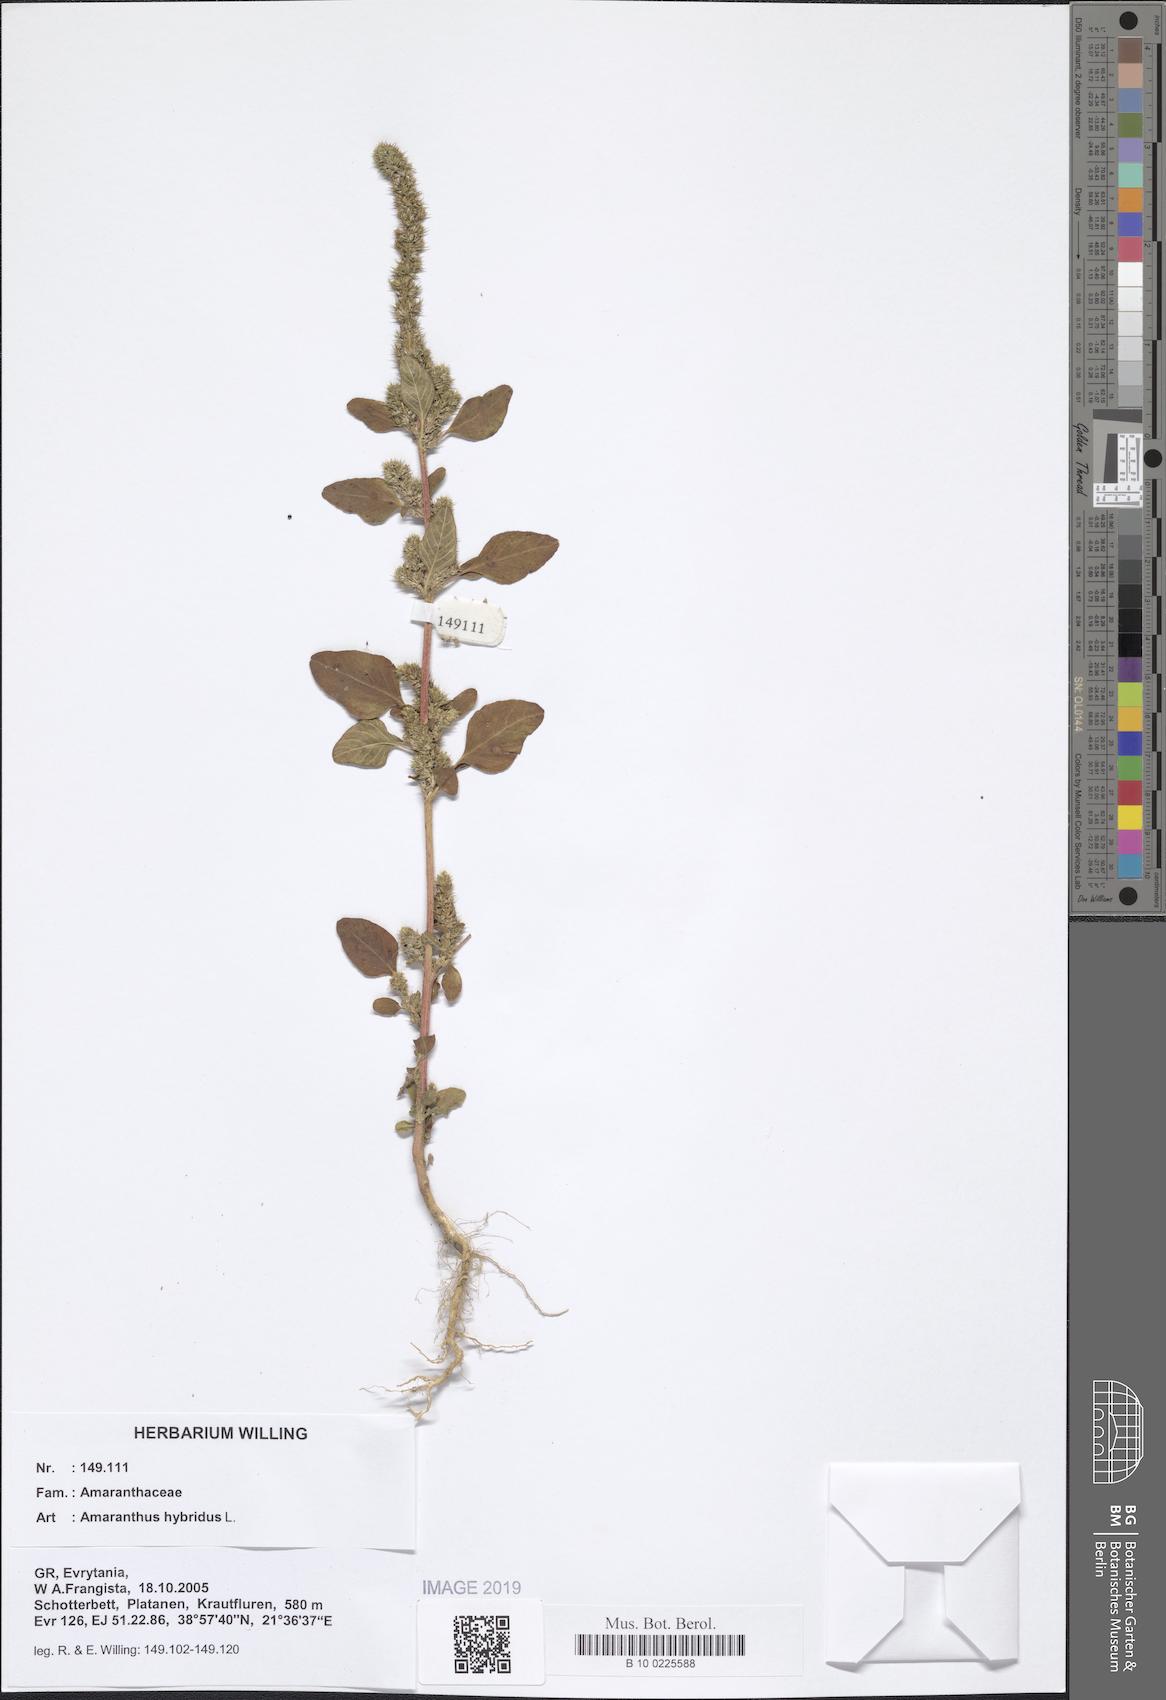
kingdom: Plantae
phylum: Tracheophyta
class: Magnoliopsida
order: Caryophyllales
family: Amaranthaceae
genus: Amaranthus
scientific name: Amaranthus hybridus
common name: Green amaranth
